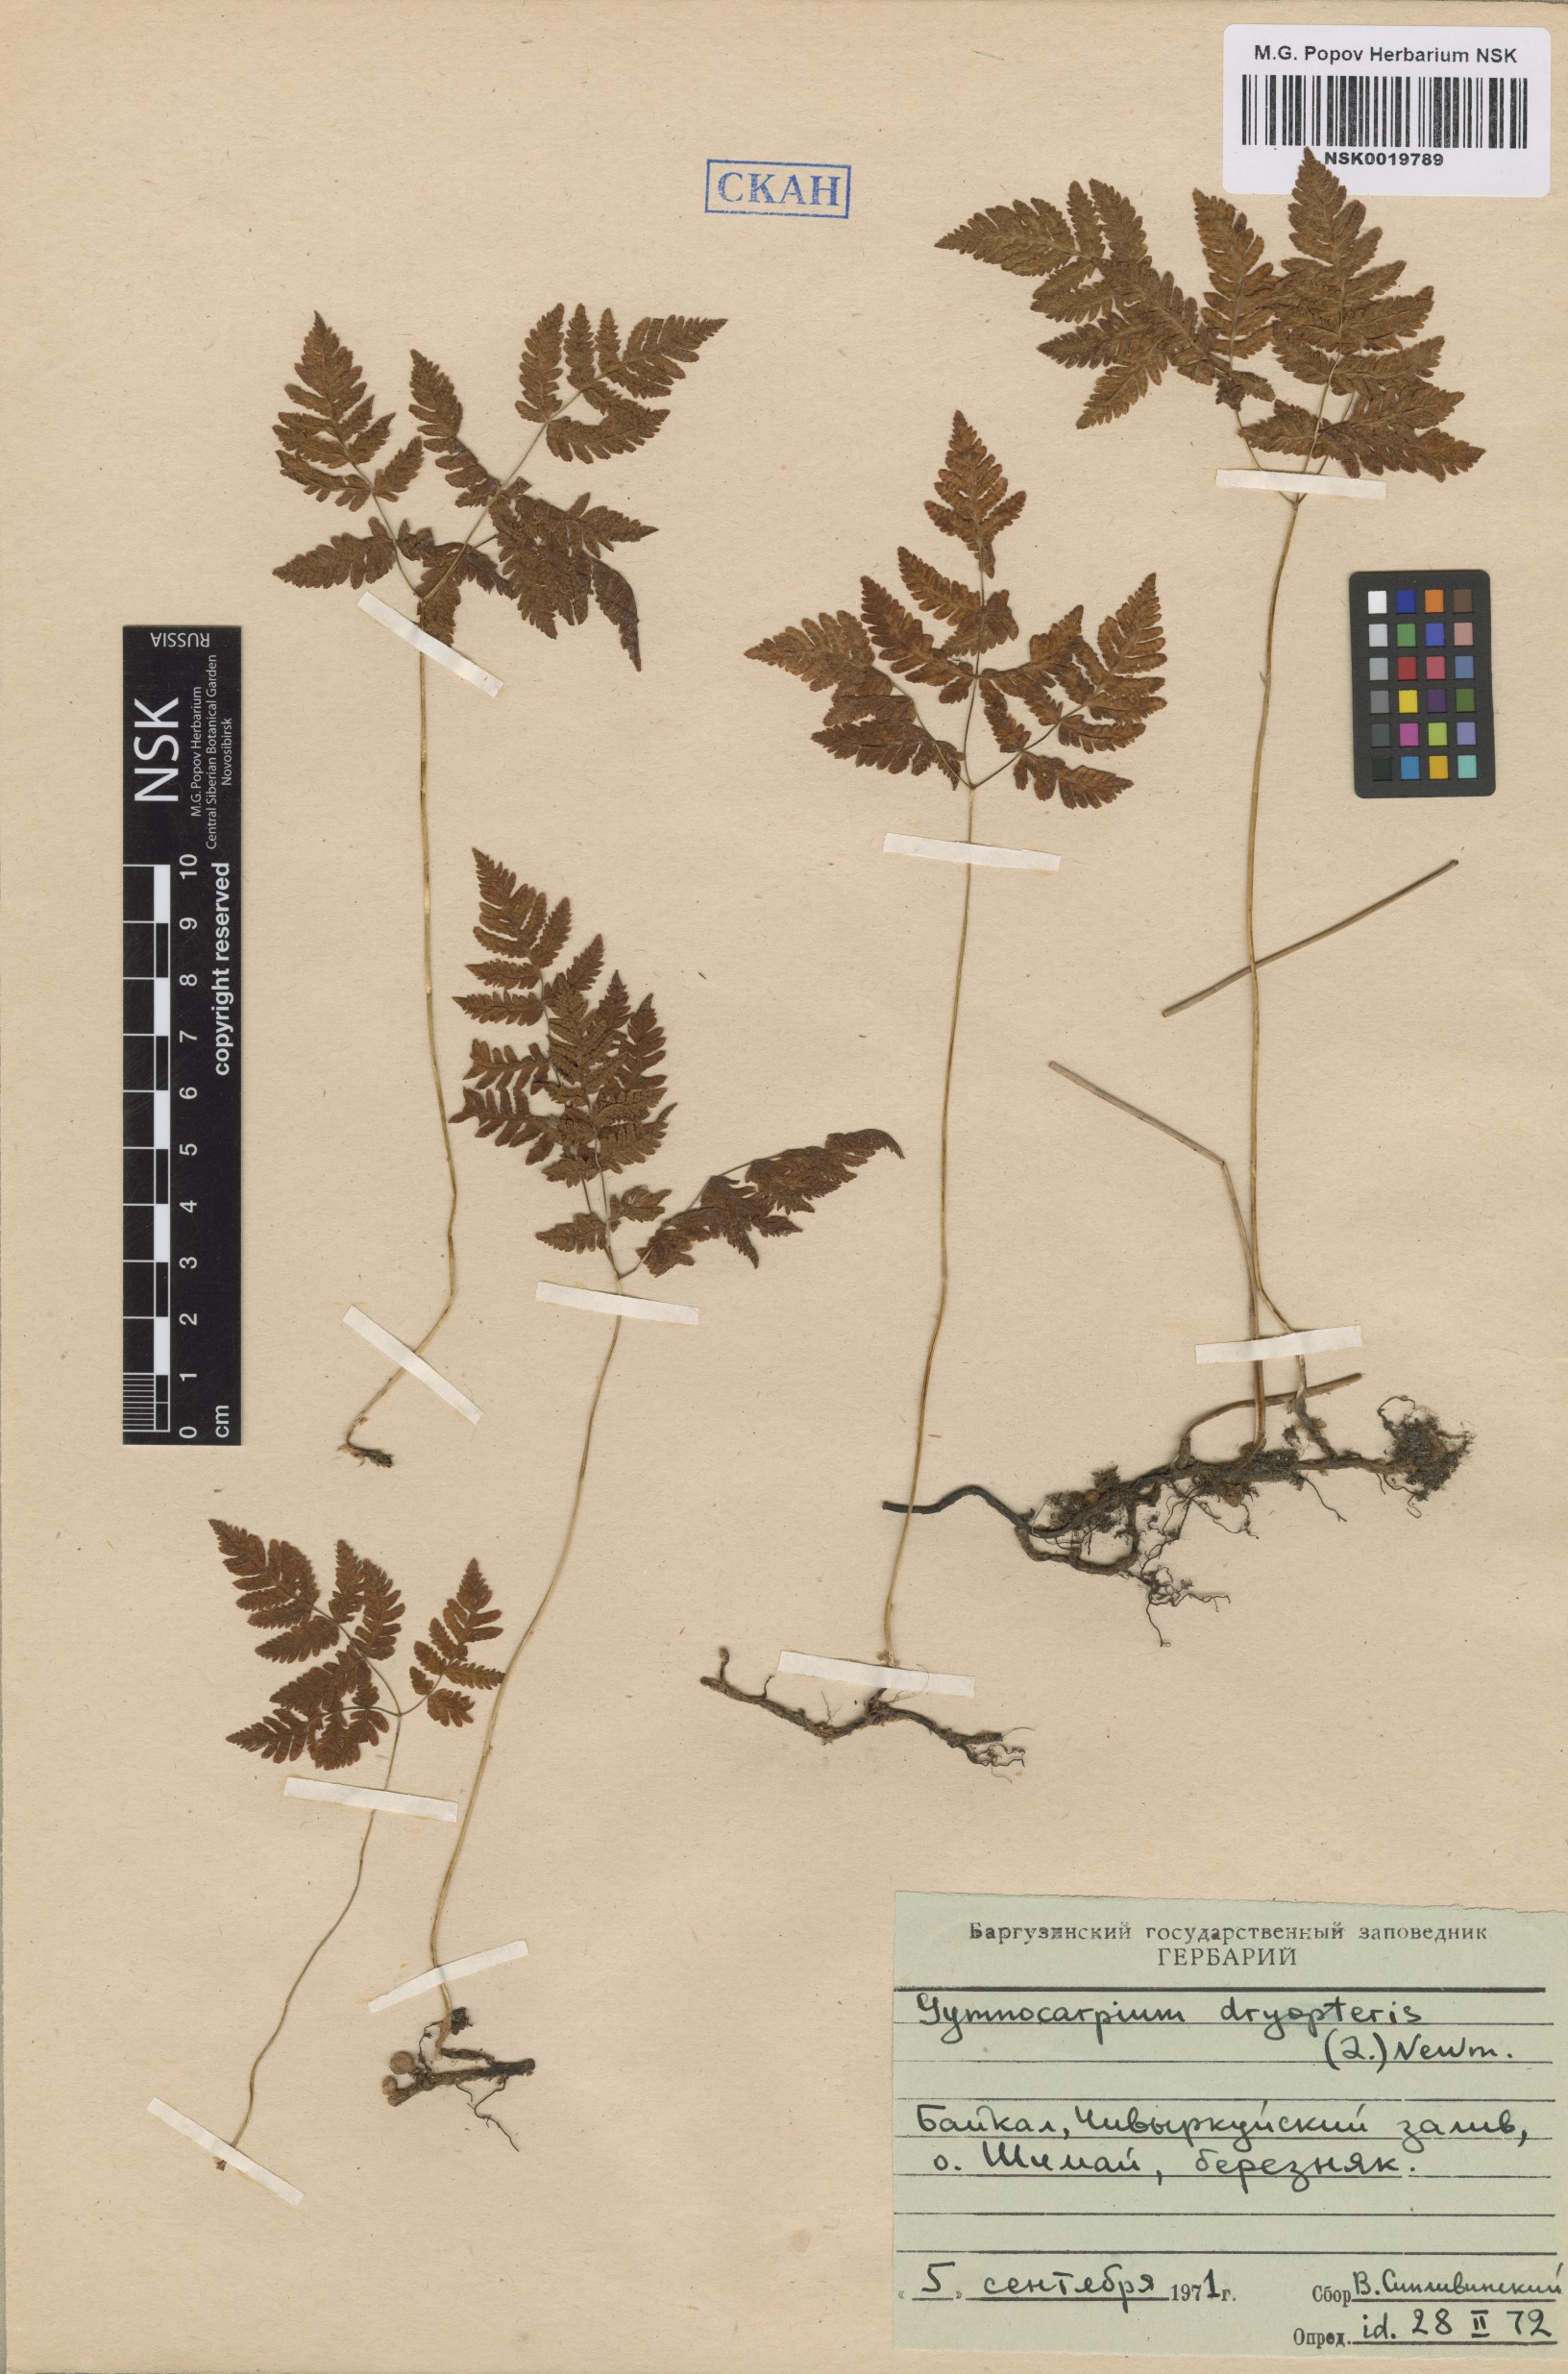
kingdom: Plantae
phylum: Tracheophyta
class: Polypodiopsida
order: Polypodiales
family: Cystopteridaceae
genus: Gymnocarpium
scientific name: Gymnocarpium dryopteris
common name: Oak fern
